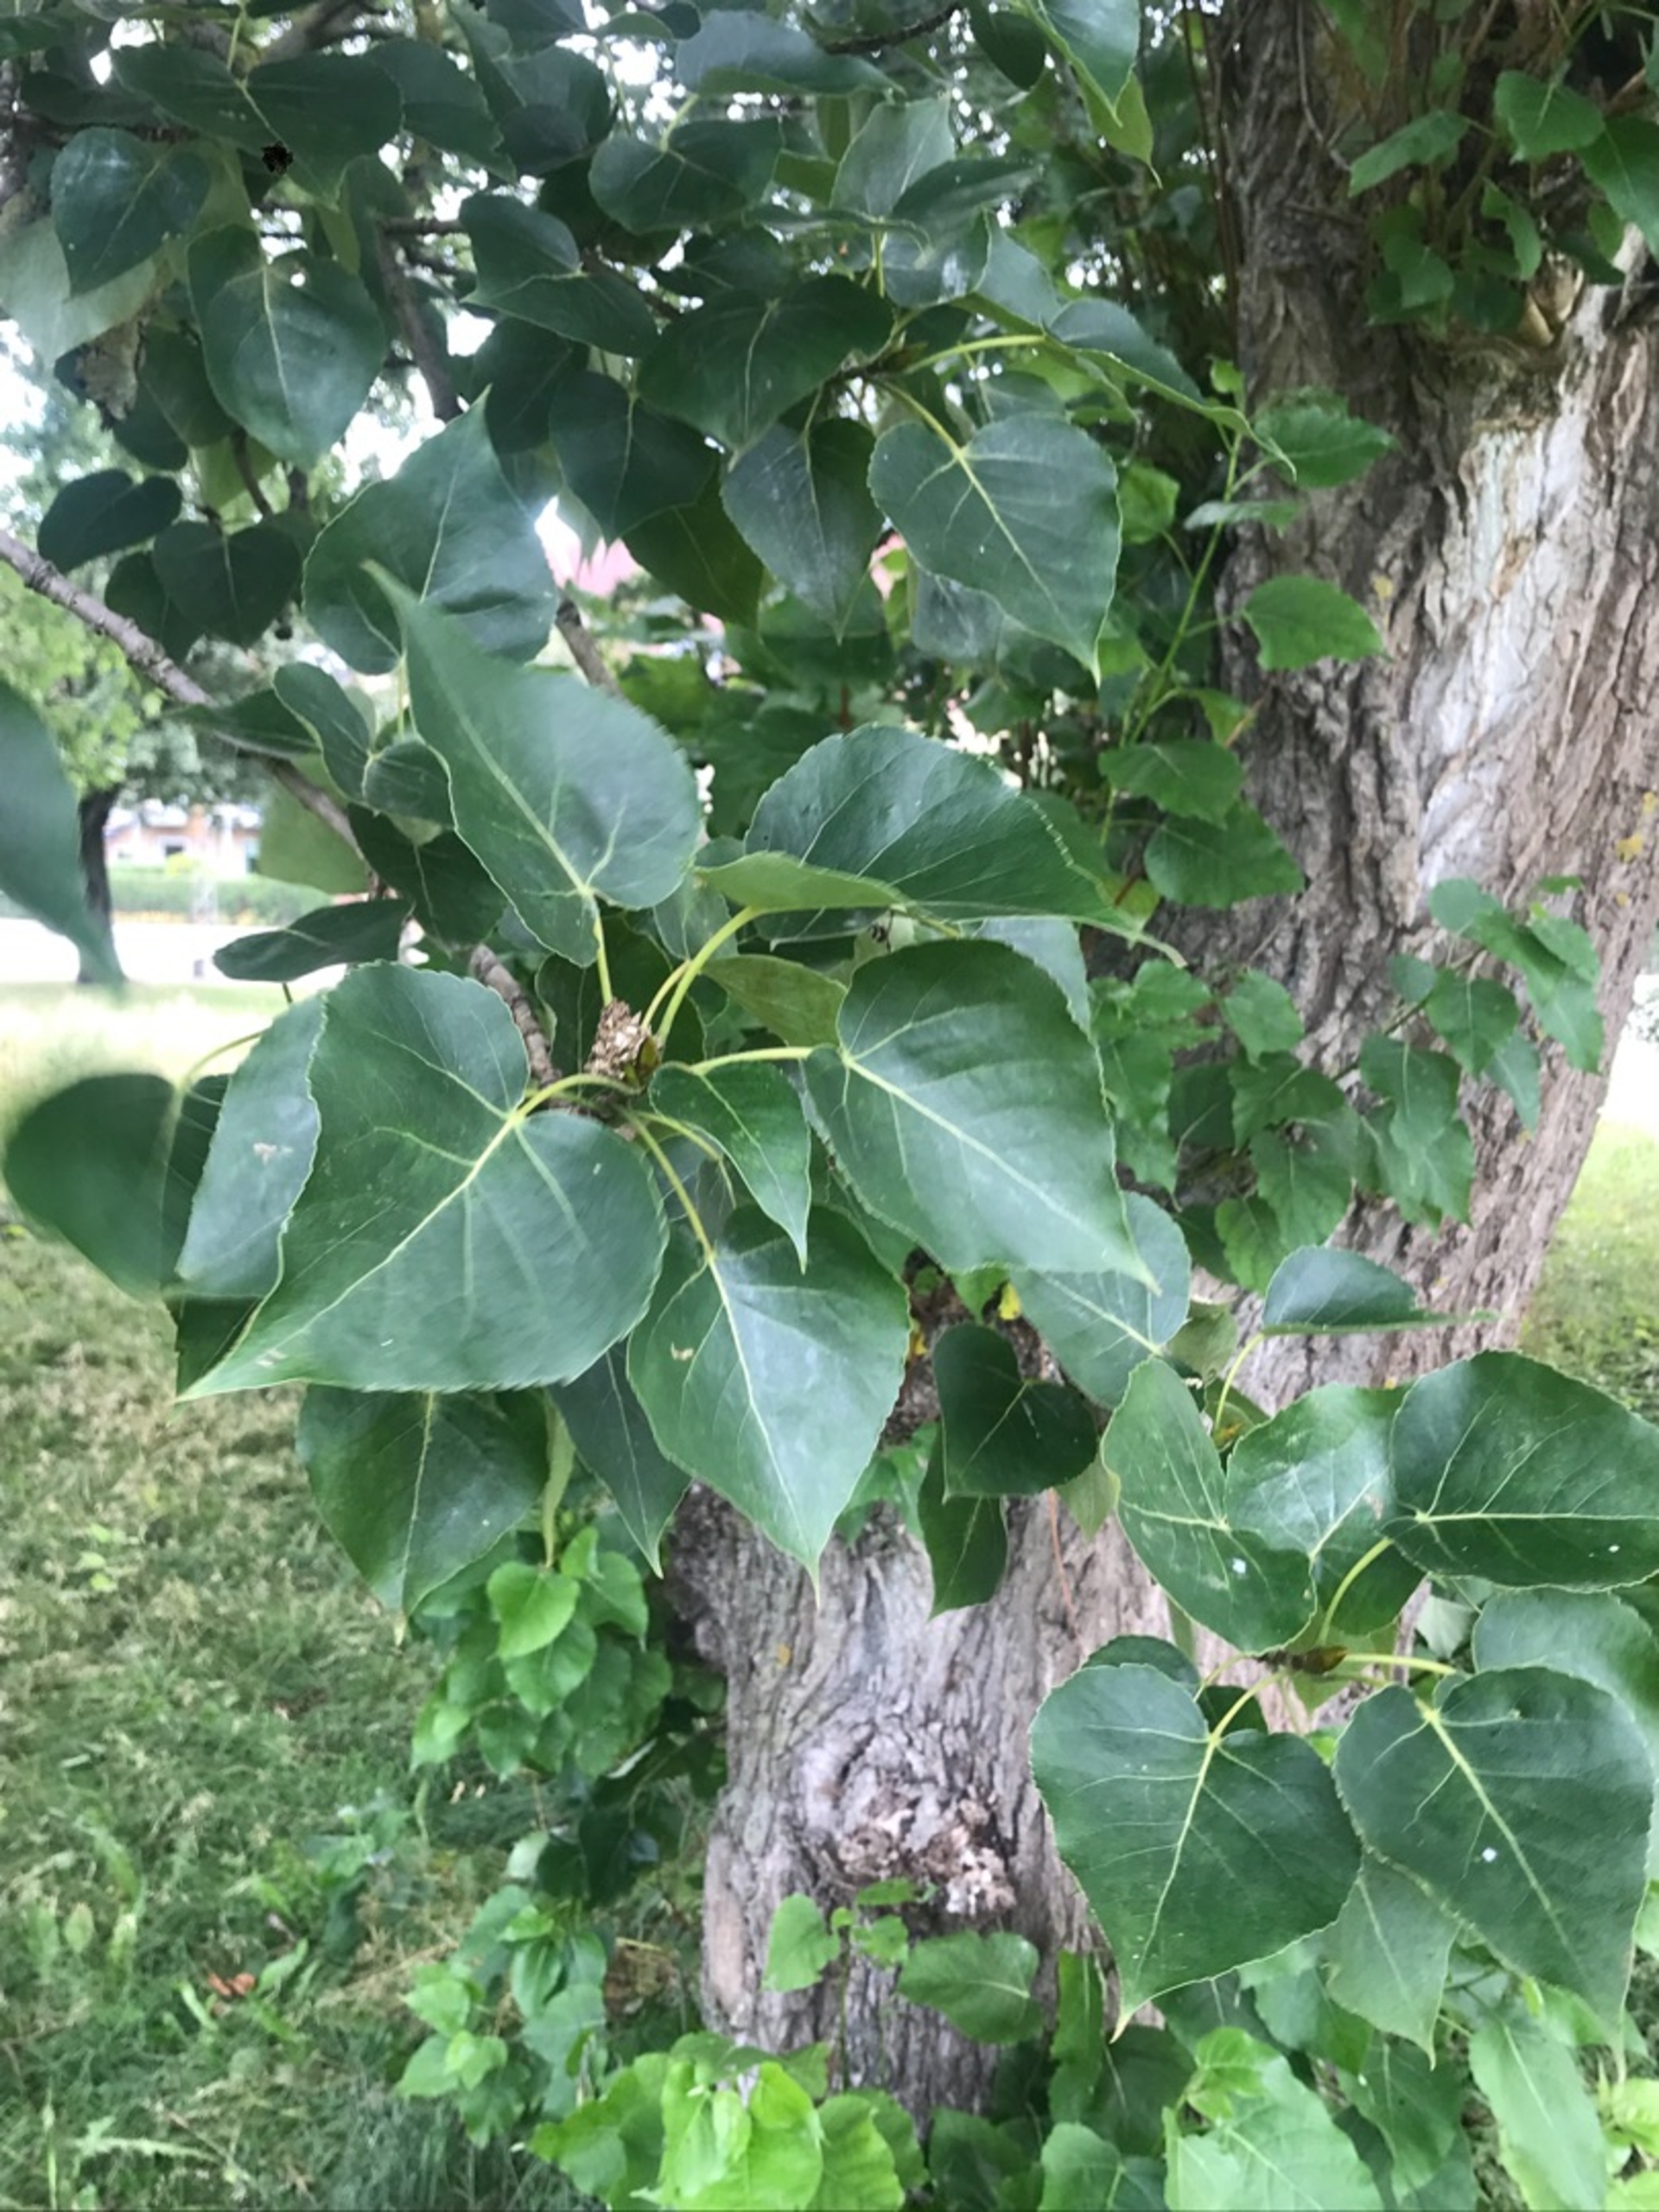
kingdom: Plantae
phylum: Tracheophyta
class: Magnoliopsida
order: Malpighiales
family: Salicaceae
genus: Populus
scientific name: Populus jackii
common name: Ontarisk poppel
